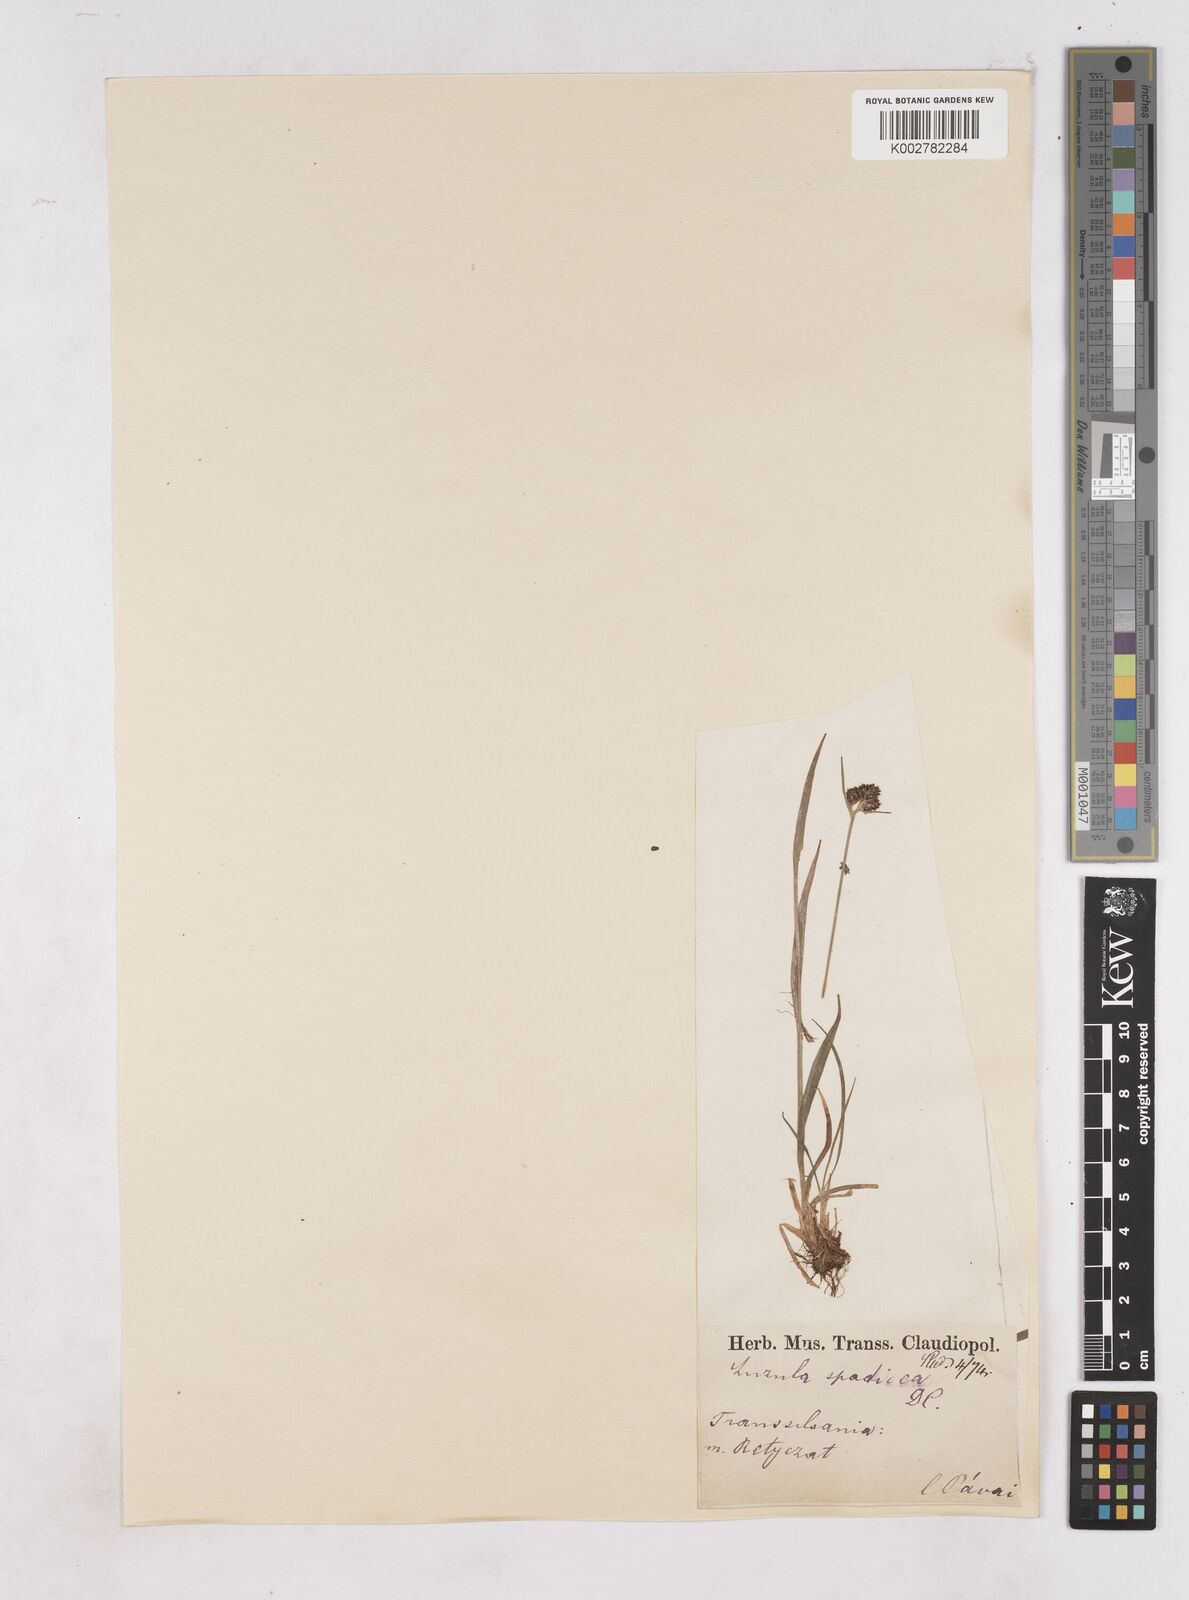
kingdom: Plantae
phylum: Tracheophyta
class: Liliopsida
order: Poales
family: Juncaceae
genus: Luzula
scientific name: Luzula alpinopilosa
